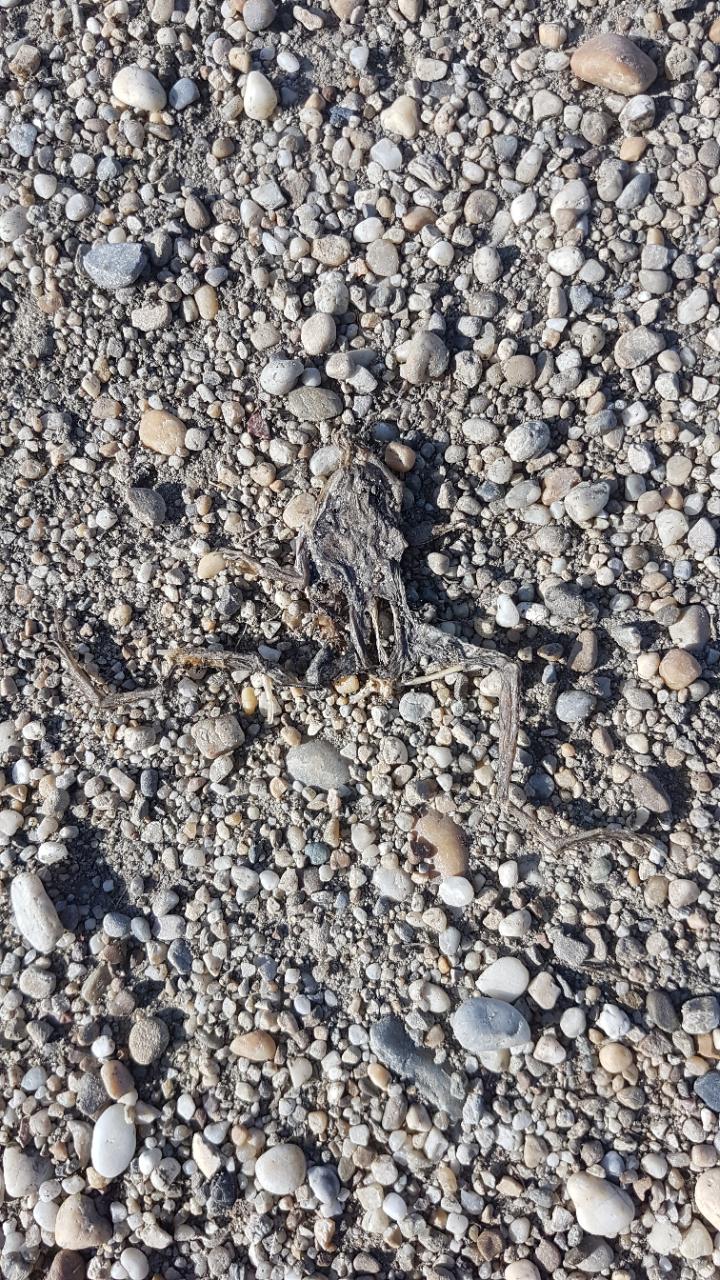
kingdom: Animalia
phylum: Chordata
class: Amphibia
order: Anura
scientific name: Anura
